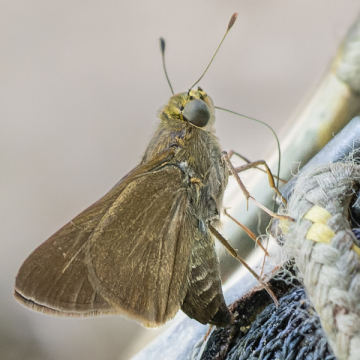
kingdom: Animalia
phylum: Arthropoda
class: Insecta
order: Lepidoptera
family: Hesperiidae
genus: Euphyes
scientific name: Euphyes vestris
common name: Dun Skipper
